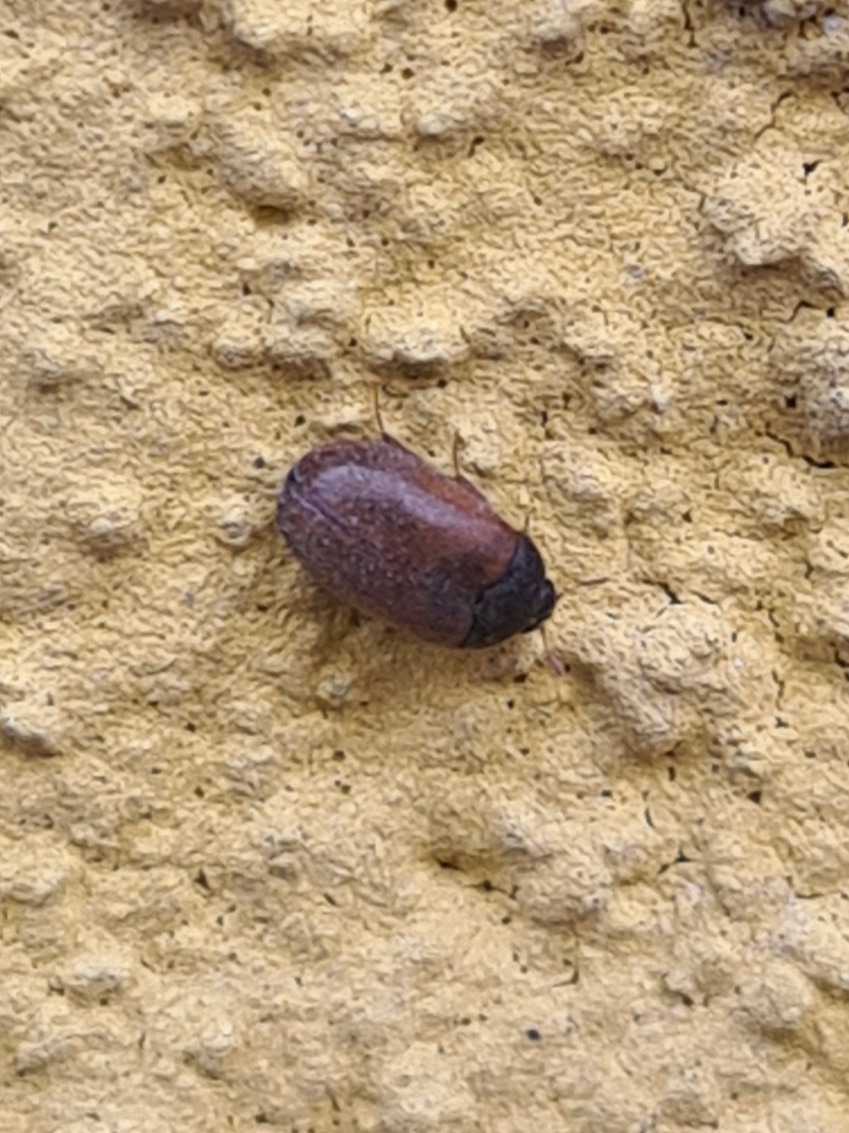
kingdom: Animalia
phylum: Arthropoda
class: Insecta
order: Coleoptera
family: Dermestidae
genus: Attagenus
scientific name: Attagenus smirnovi
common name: Brun pelsklanner
